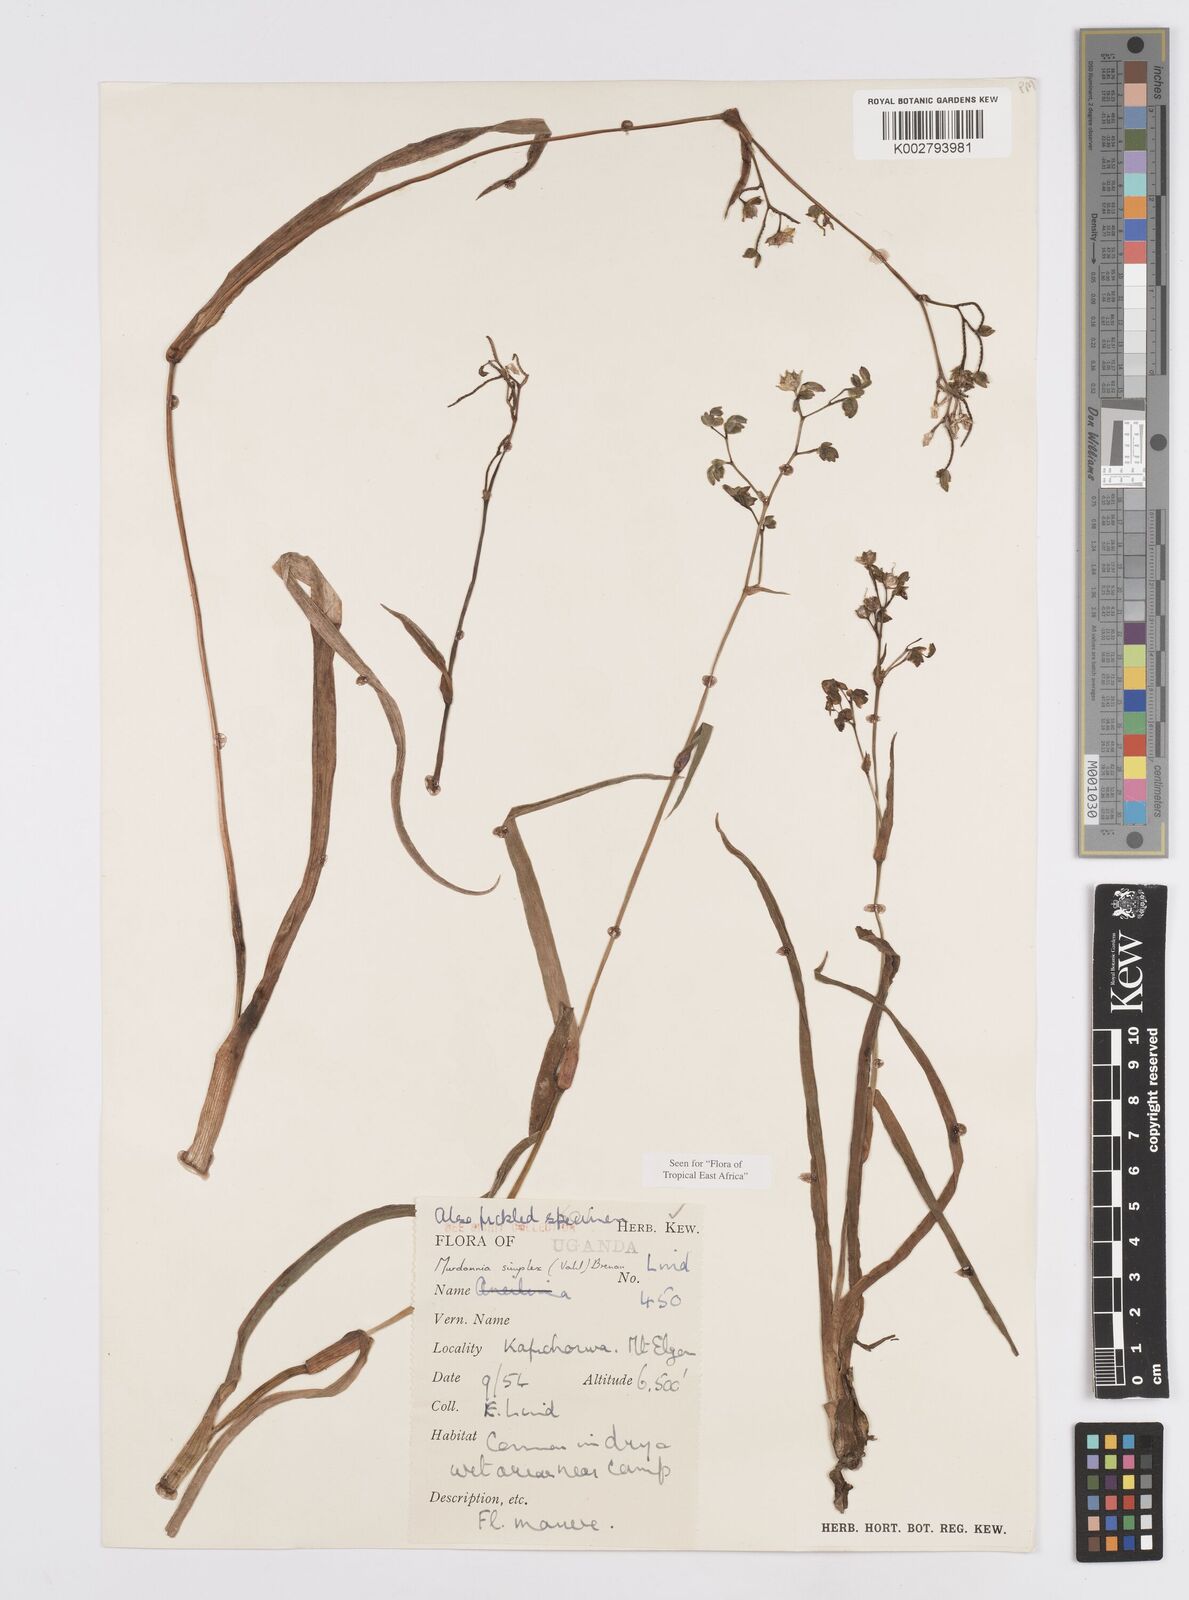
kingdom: Plantae
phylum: Tracheophyta
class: Liliopsida
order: Commelinales
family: Commelinaceae
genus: Murdannia
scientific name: Murdannia simplex
